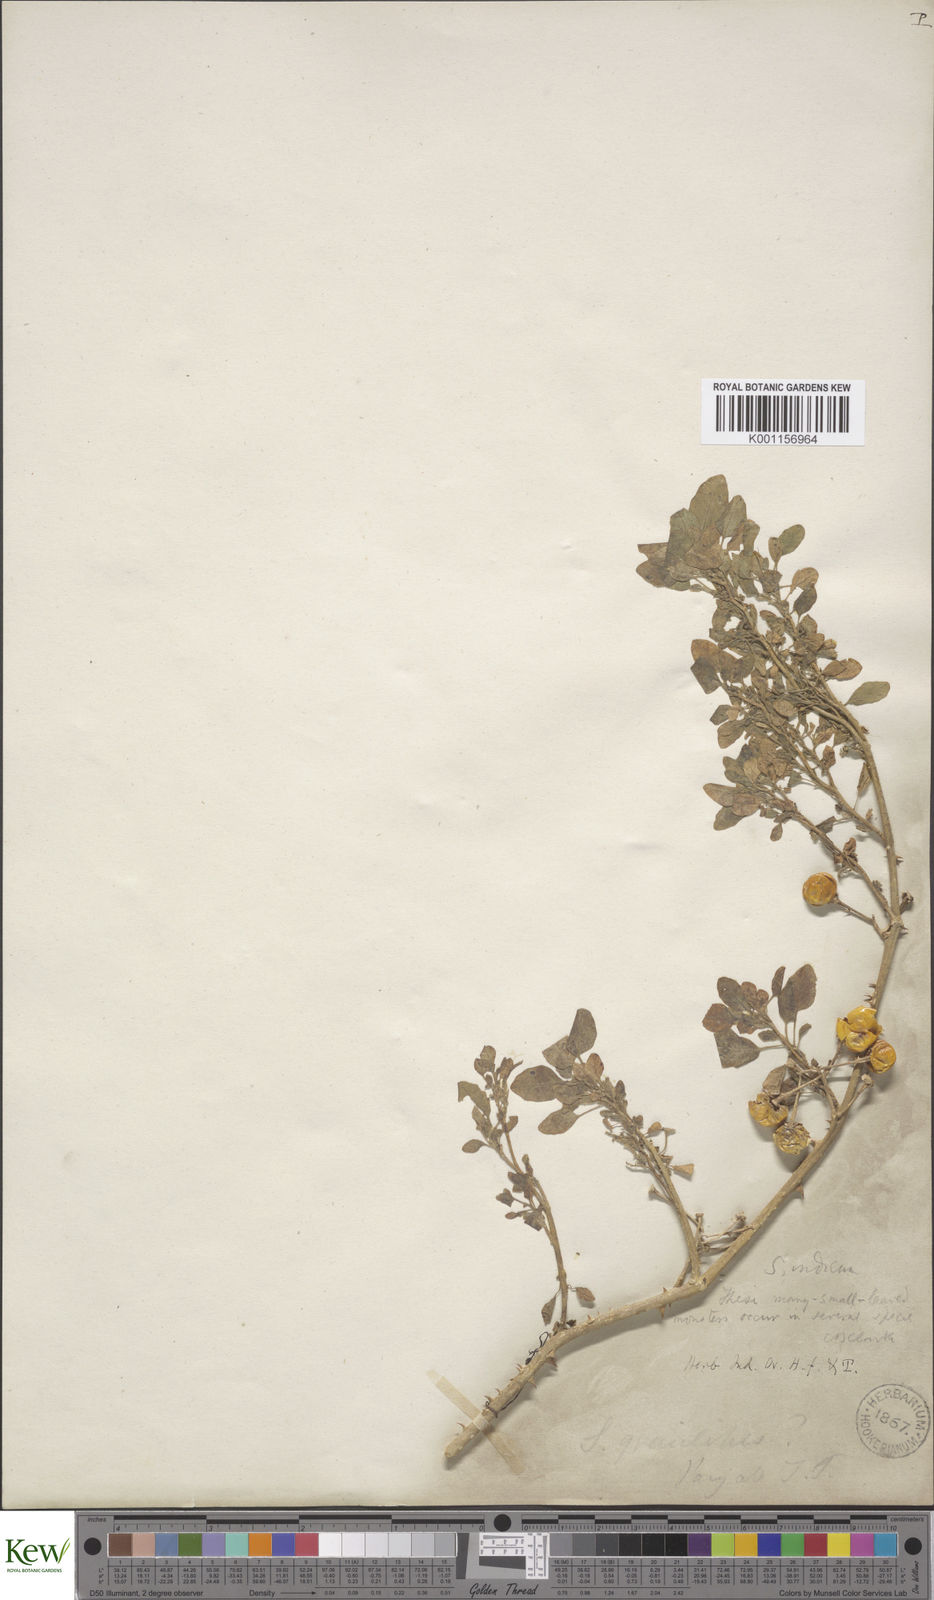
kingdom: Plantae
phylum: Tracheophyta
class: Magnoliopsida
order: Solanales
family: Solanaceae
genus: Solanum
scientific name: Solanum anguivi
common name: Forest bitterberry
